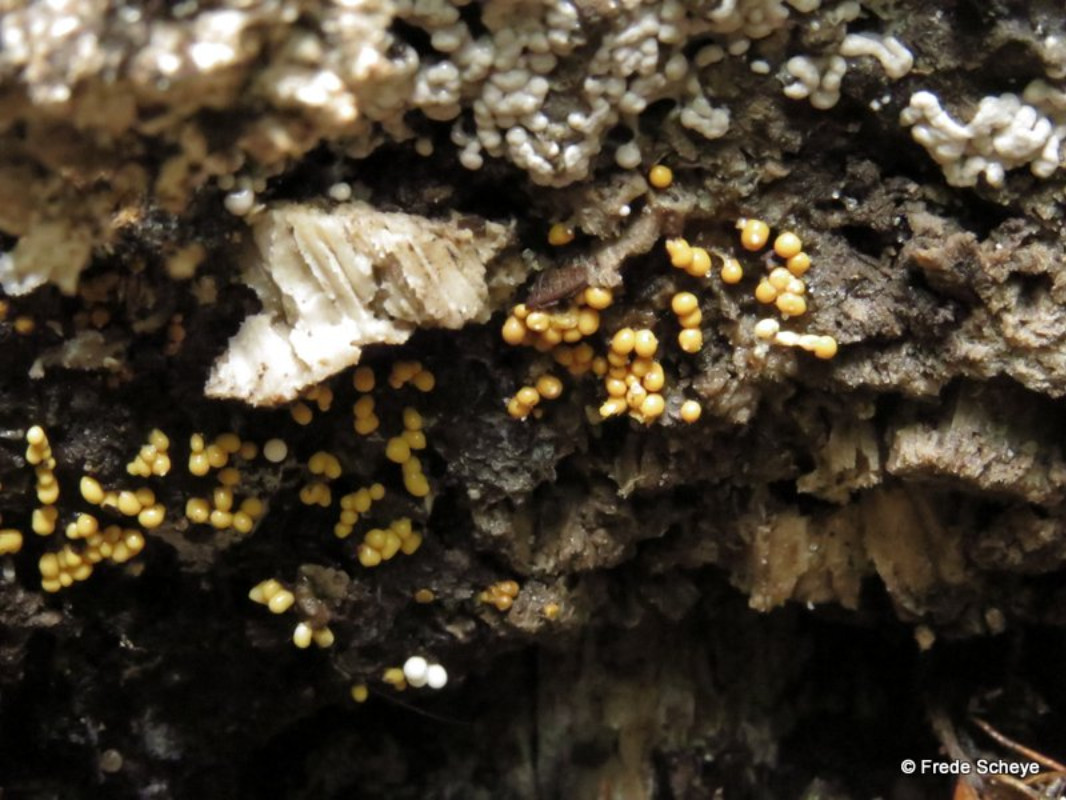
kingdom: Protozoa
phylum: Mycetozoa
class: Myxomycetes
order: Trichiales
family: Trichiaceae
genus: Trichia
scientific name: Trichia varia
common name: foranderlig hårbold
